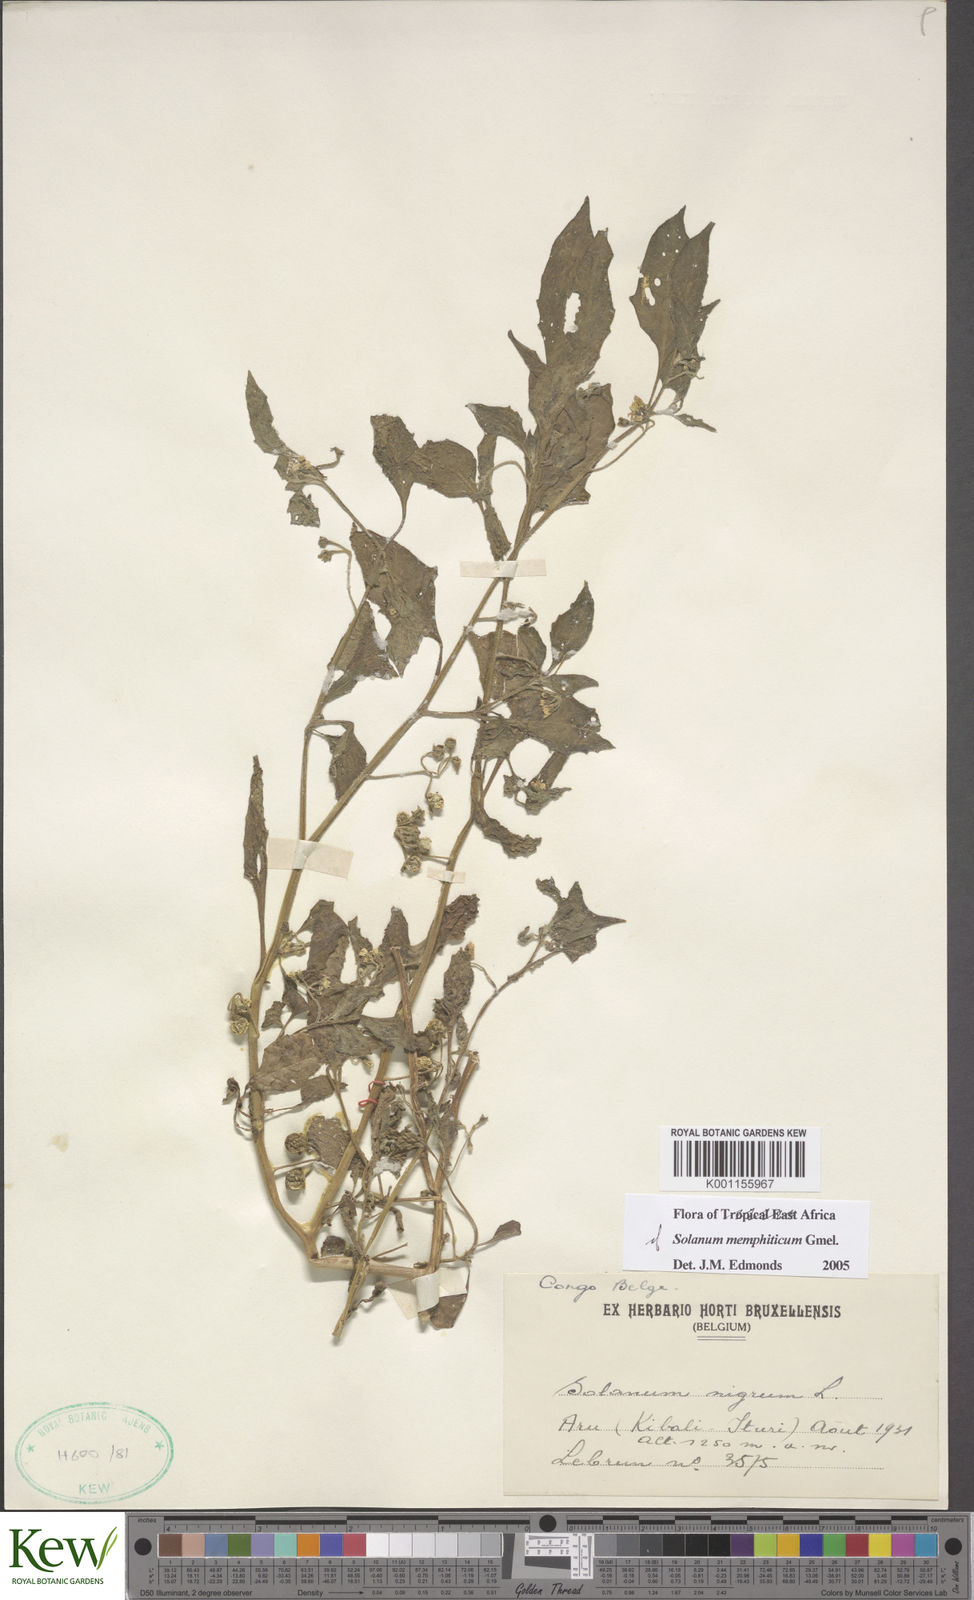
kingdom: Plantae
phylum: Tracheophyta
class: Magnoliopsida
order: Solanales
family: Solanaceae
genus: Solanum
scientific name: Solanum tarderemotum
